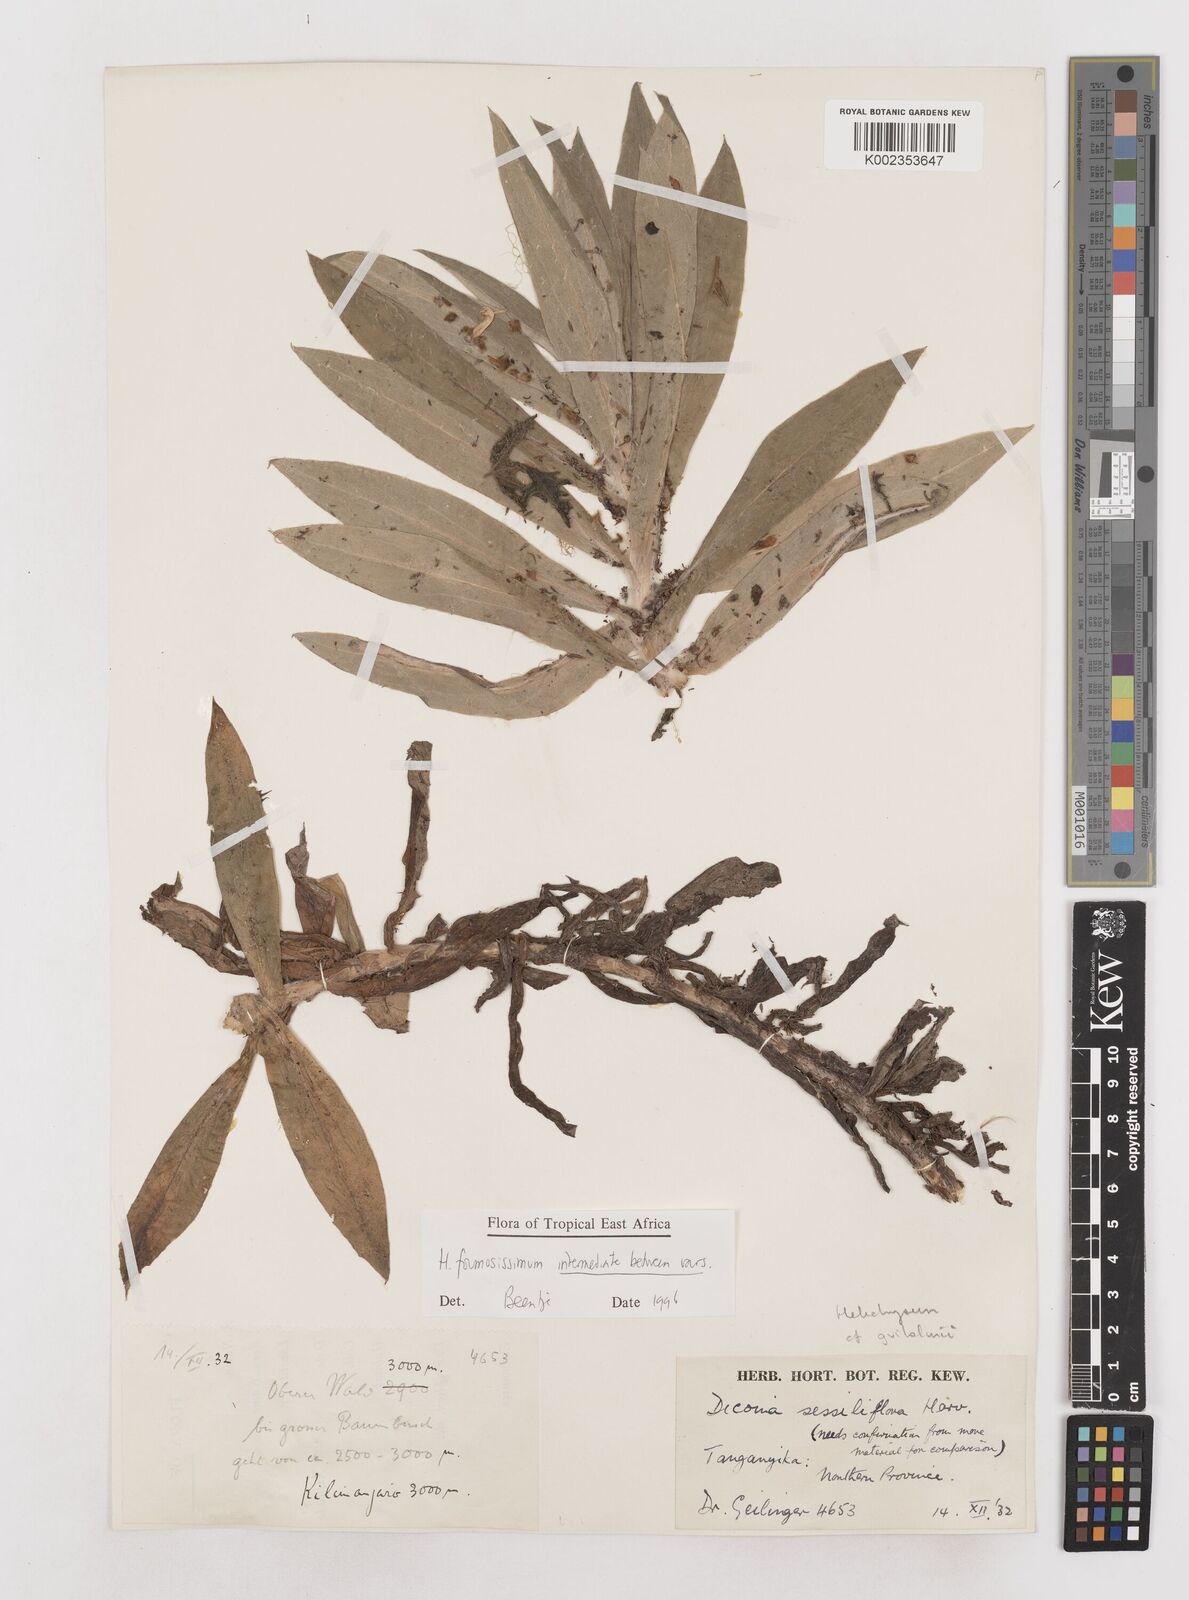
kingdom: Plantae
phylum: Tracheophyta
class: Magnoliopsida
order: Asterales
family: Asteraceae
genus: Helichrysum
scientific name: Helichrysum formosissimum
